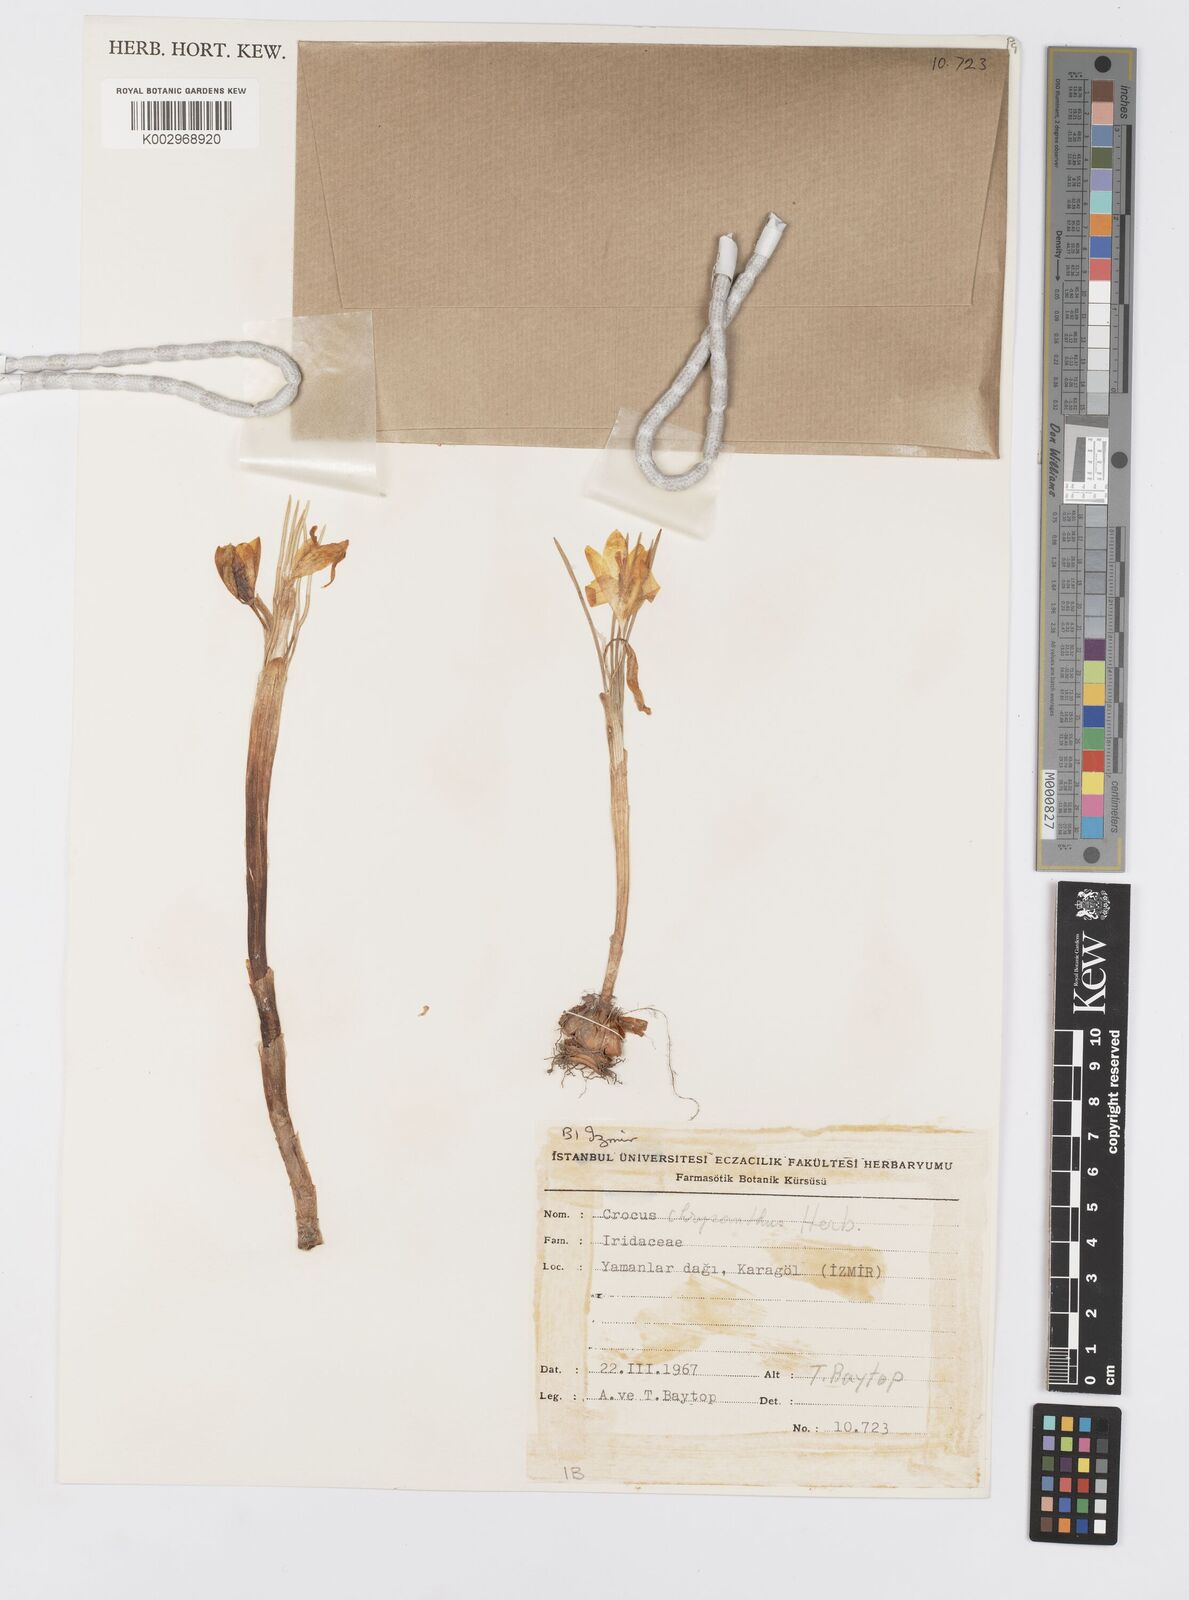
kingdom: Plantae
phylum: Tracheophyta
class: Liliopsida
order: Asparagales
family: Iridaceae
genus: Crocus
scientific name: Crocus
